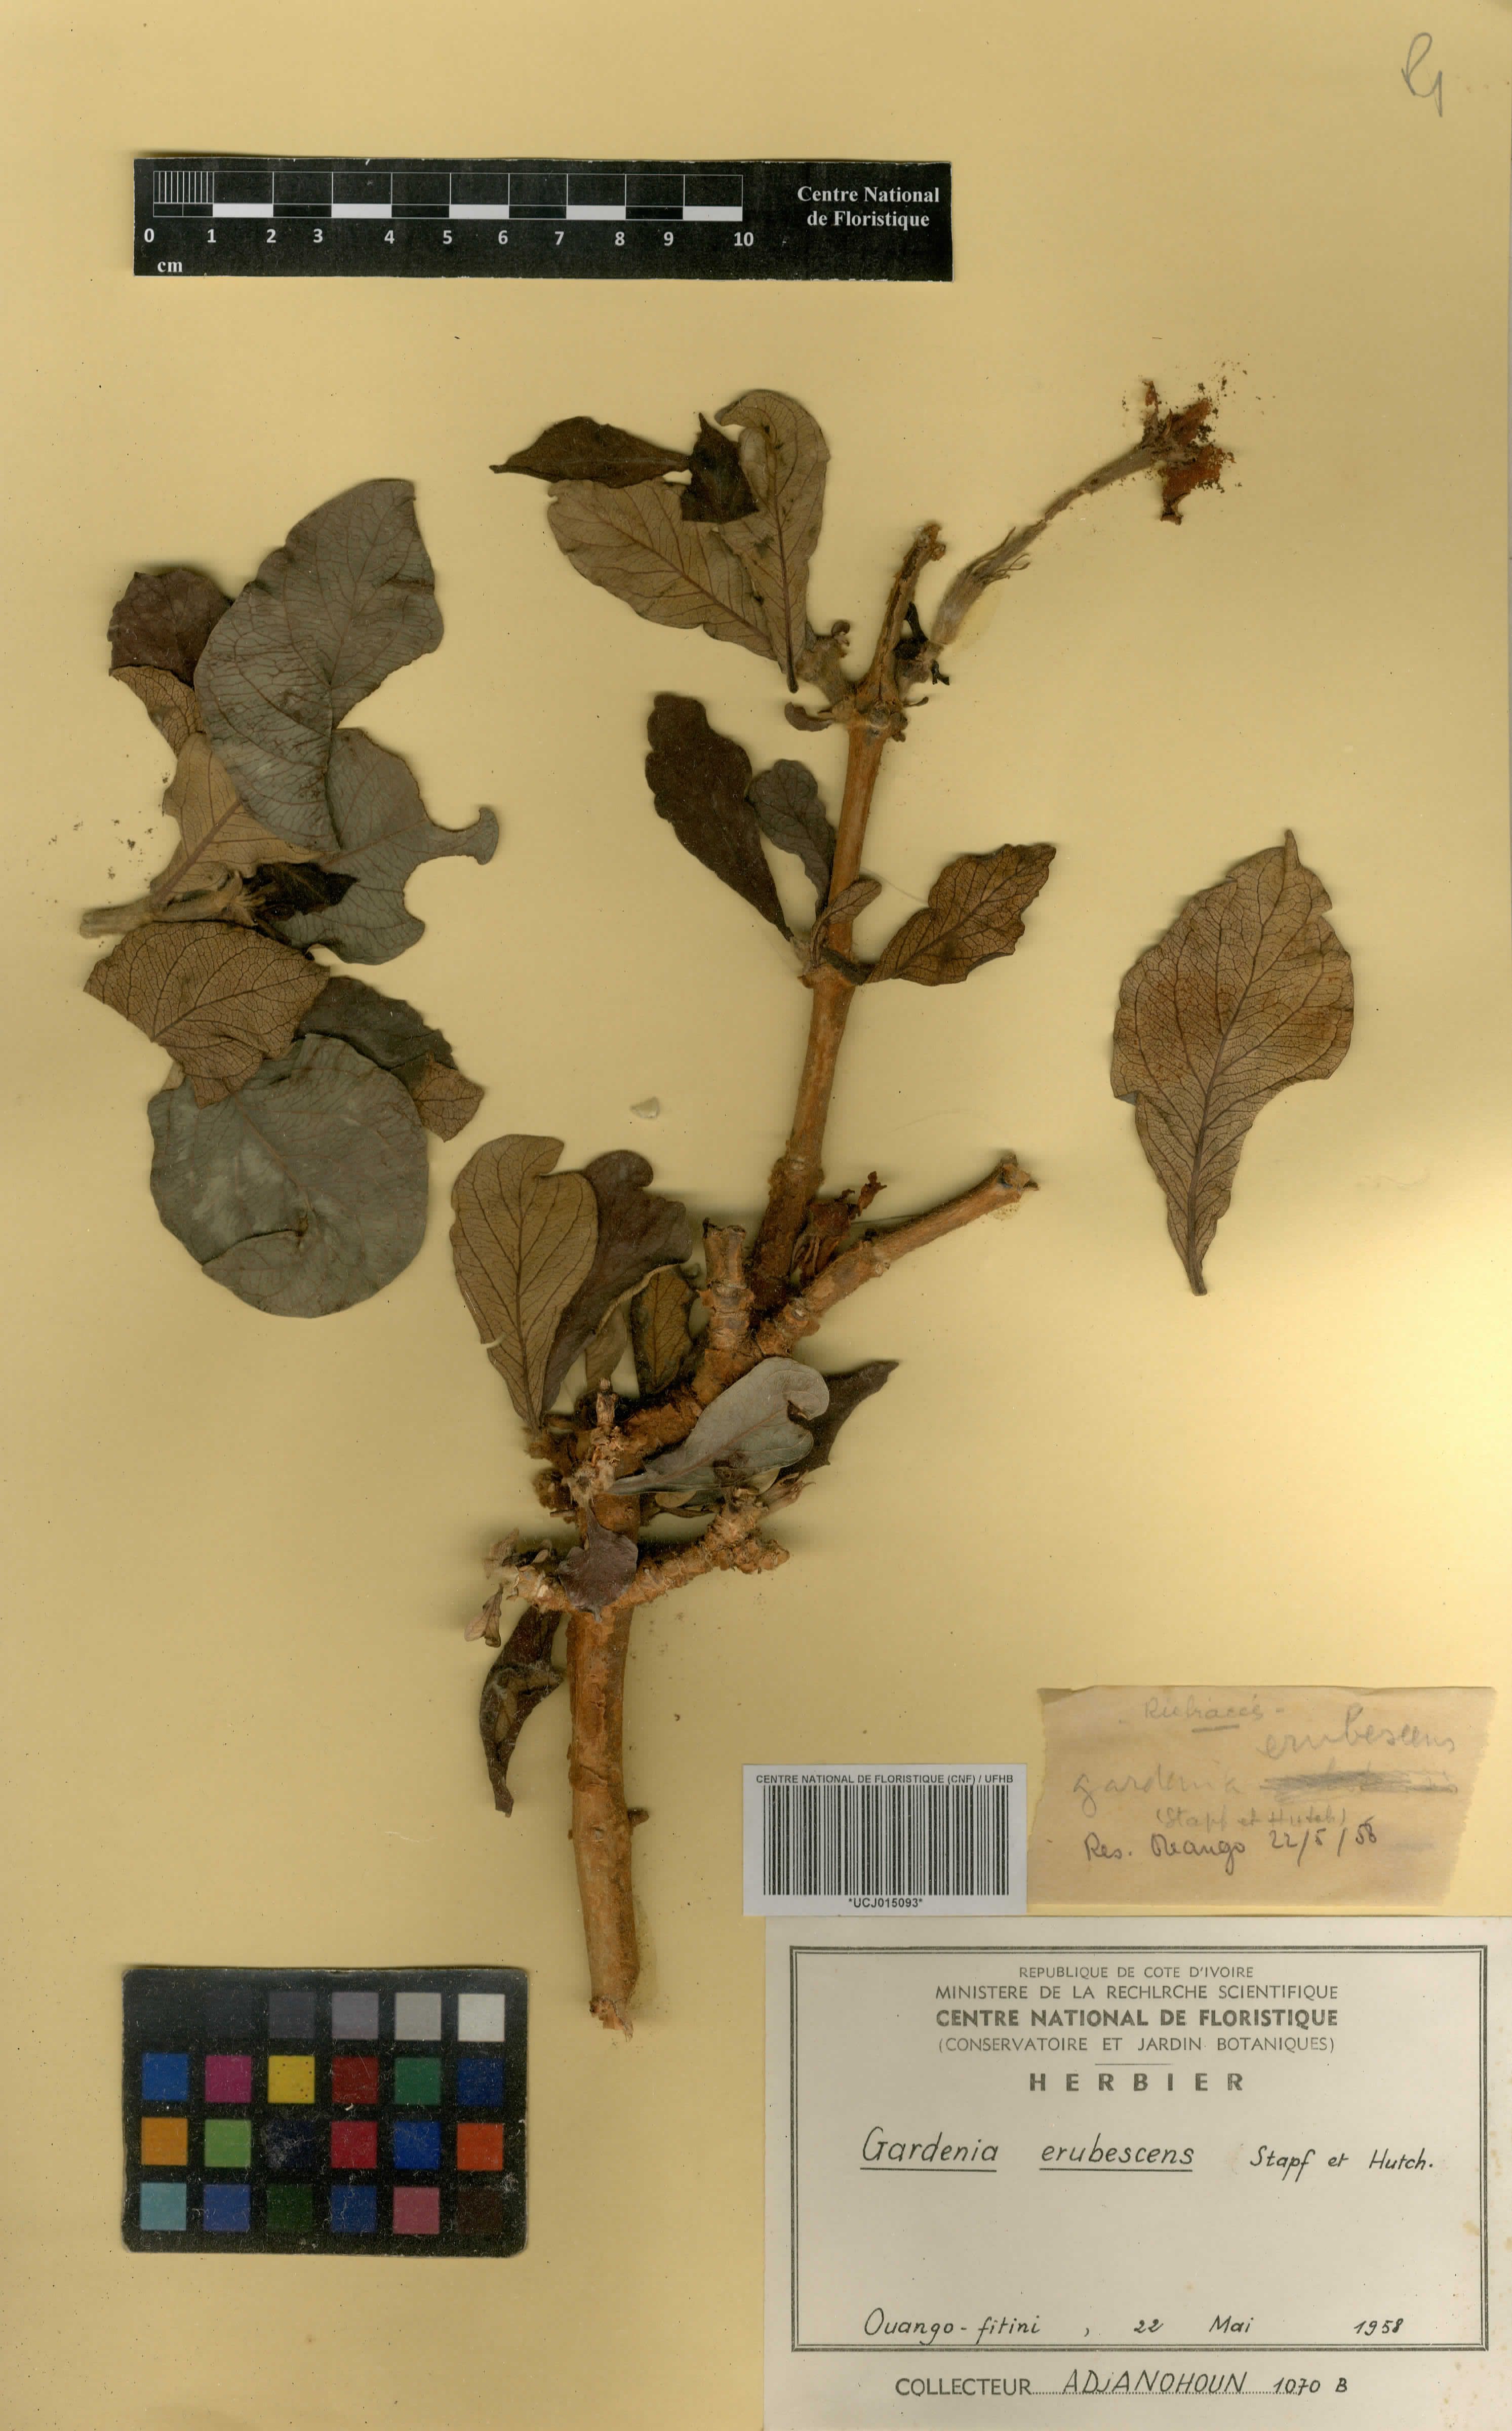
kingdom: Plantae
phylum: Tracheophyta
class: Magnoliopsida
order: Gentianales
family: Rubiaceae
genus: Gardenia
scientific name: Gardenia erubescens
